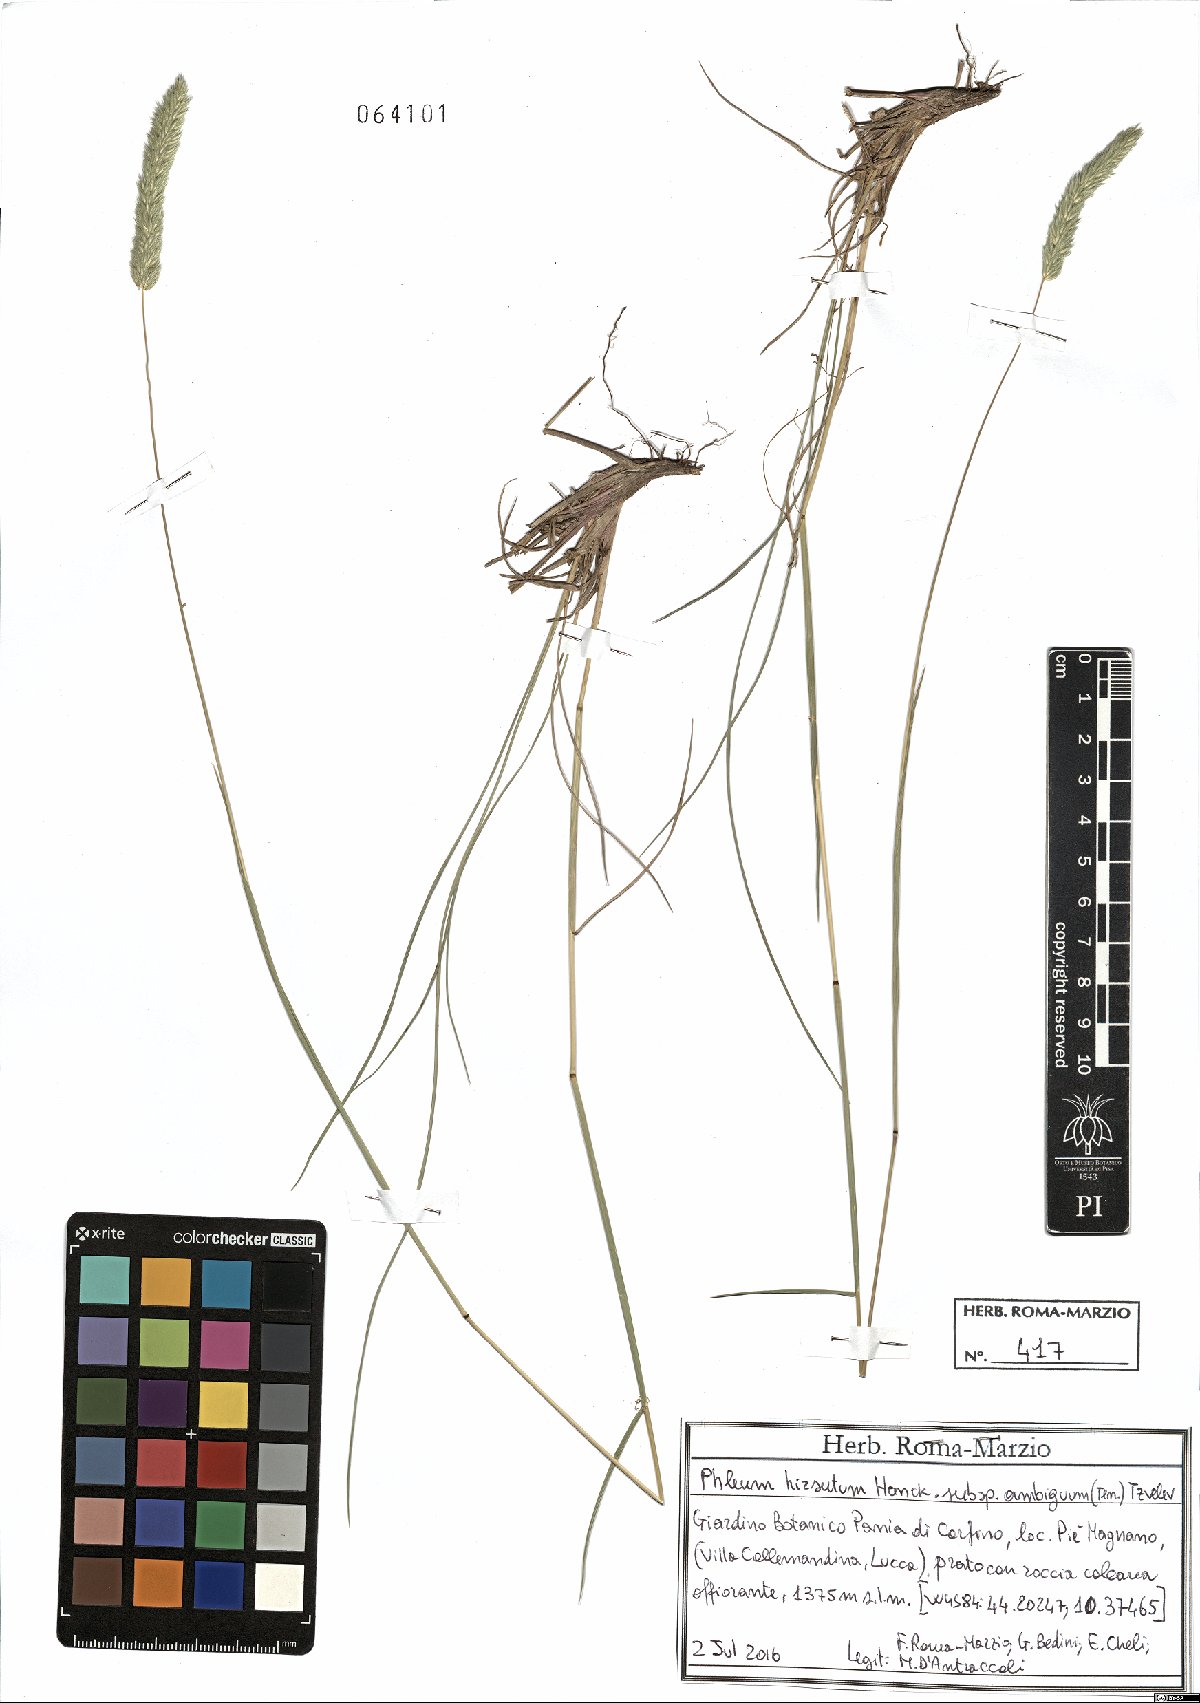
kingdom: Plantae
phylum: Tracheophyta
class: Liliopsida
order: Poales
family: Poaceae
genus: Phleum
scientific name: Phleum hirsutum
